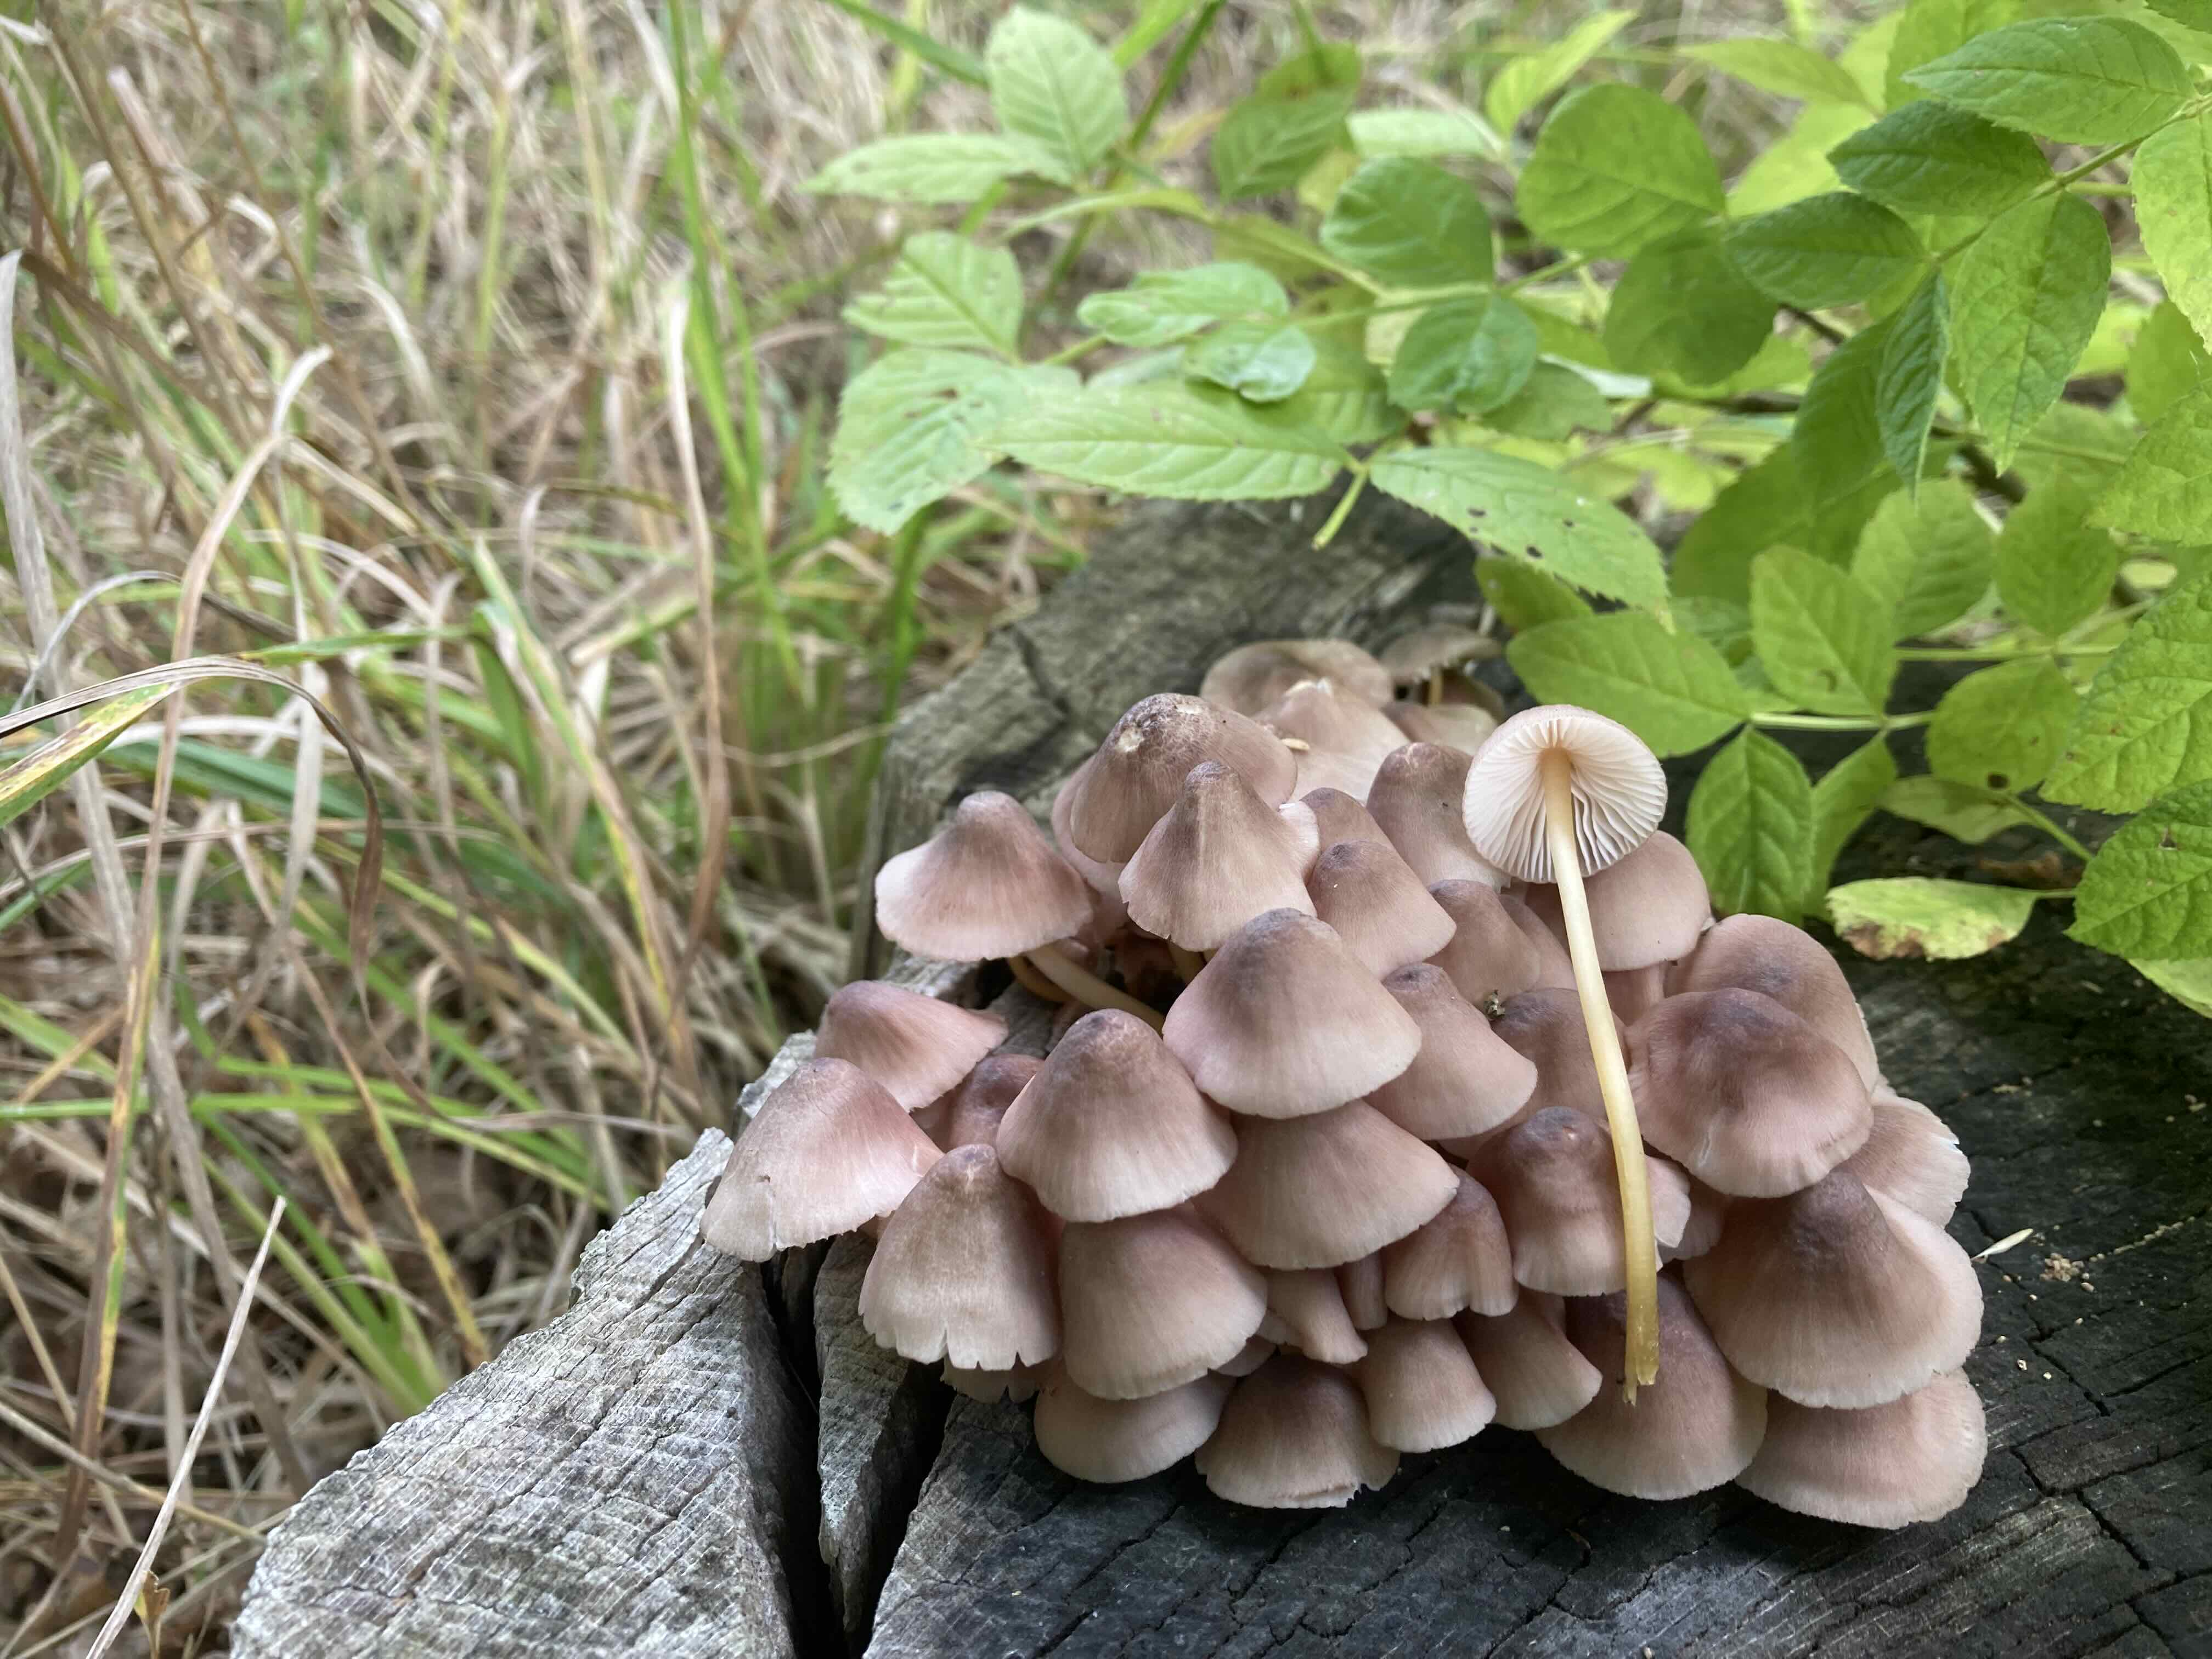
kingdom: Fungi
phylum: Basidiomycota
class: Agaricomycetes
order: Agaricales
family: Mycenaceae
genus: Mycena
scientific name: Mycena renati
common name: smuk huesvamp
